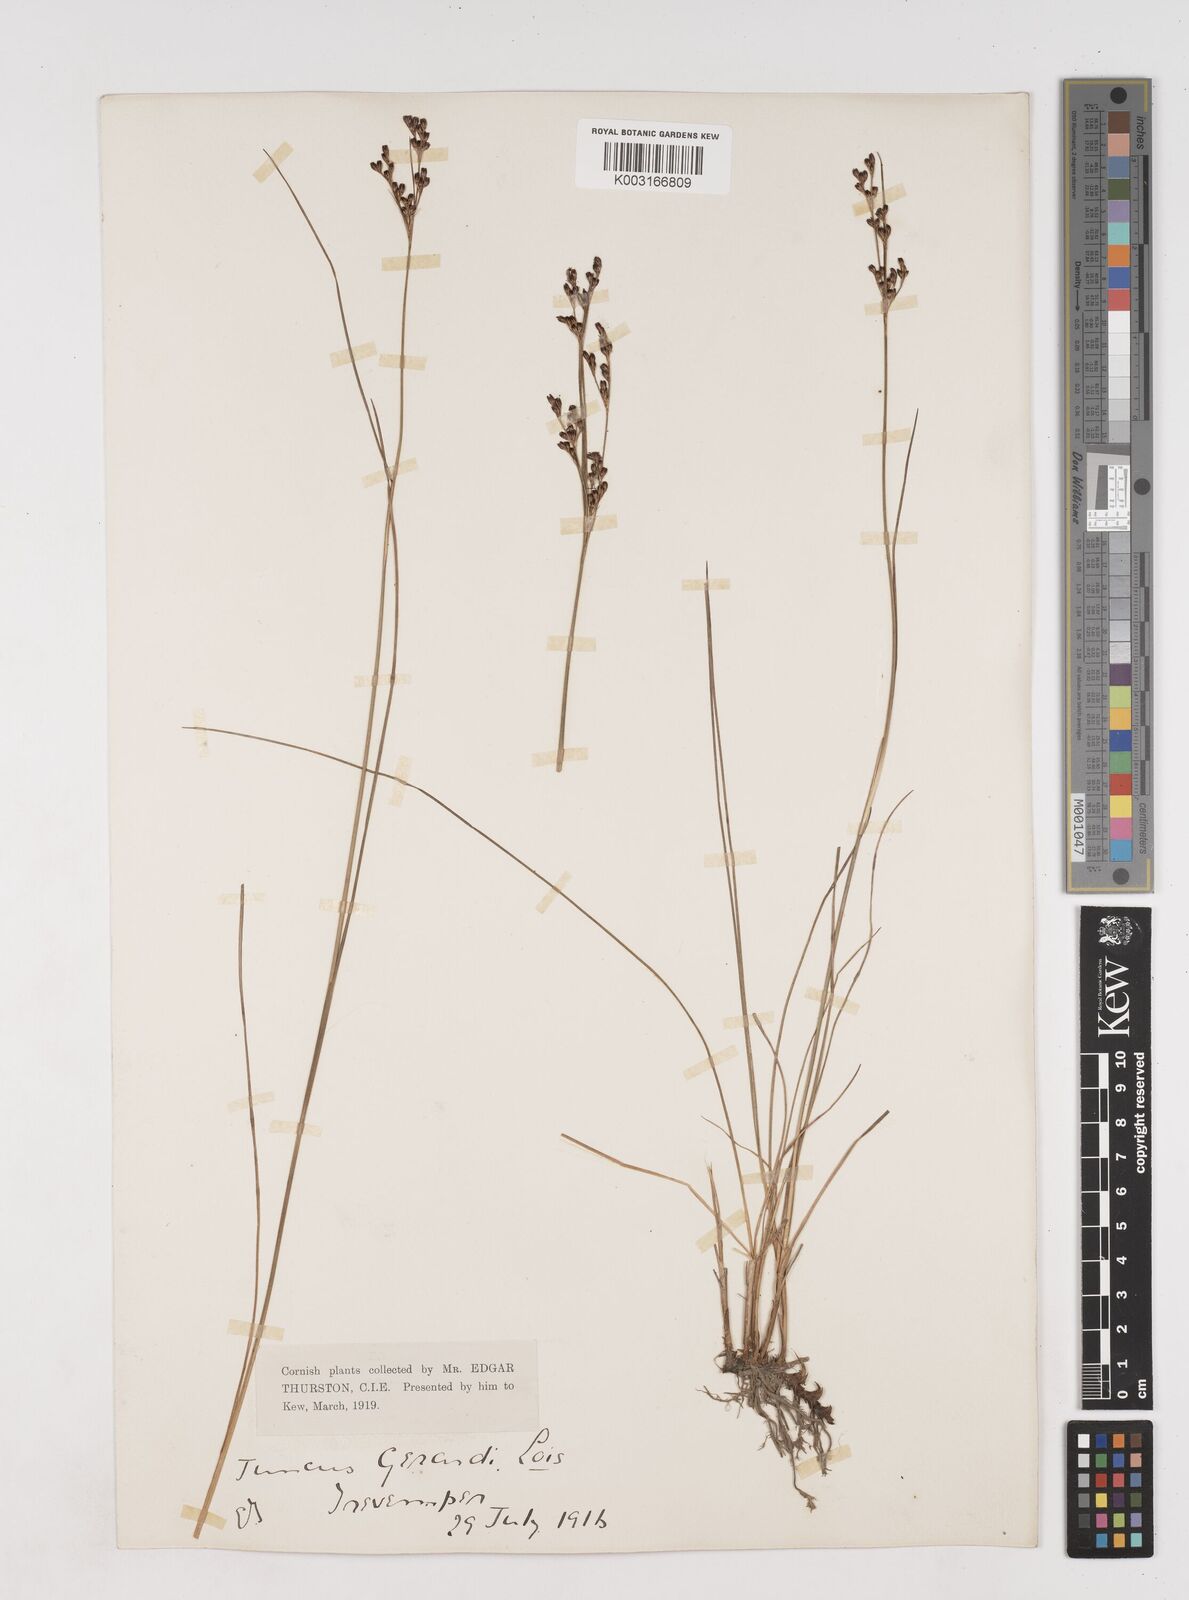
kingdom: Plantae
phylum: Tracheophyta
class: Liliopsida
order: Poales
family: Juncaceae
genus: Juncus
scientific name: Juncus gerardi
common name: Saltmarsh rush
